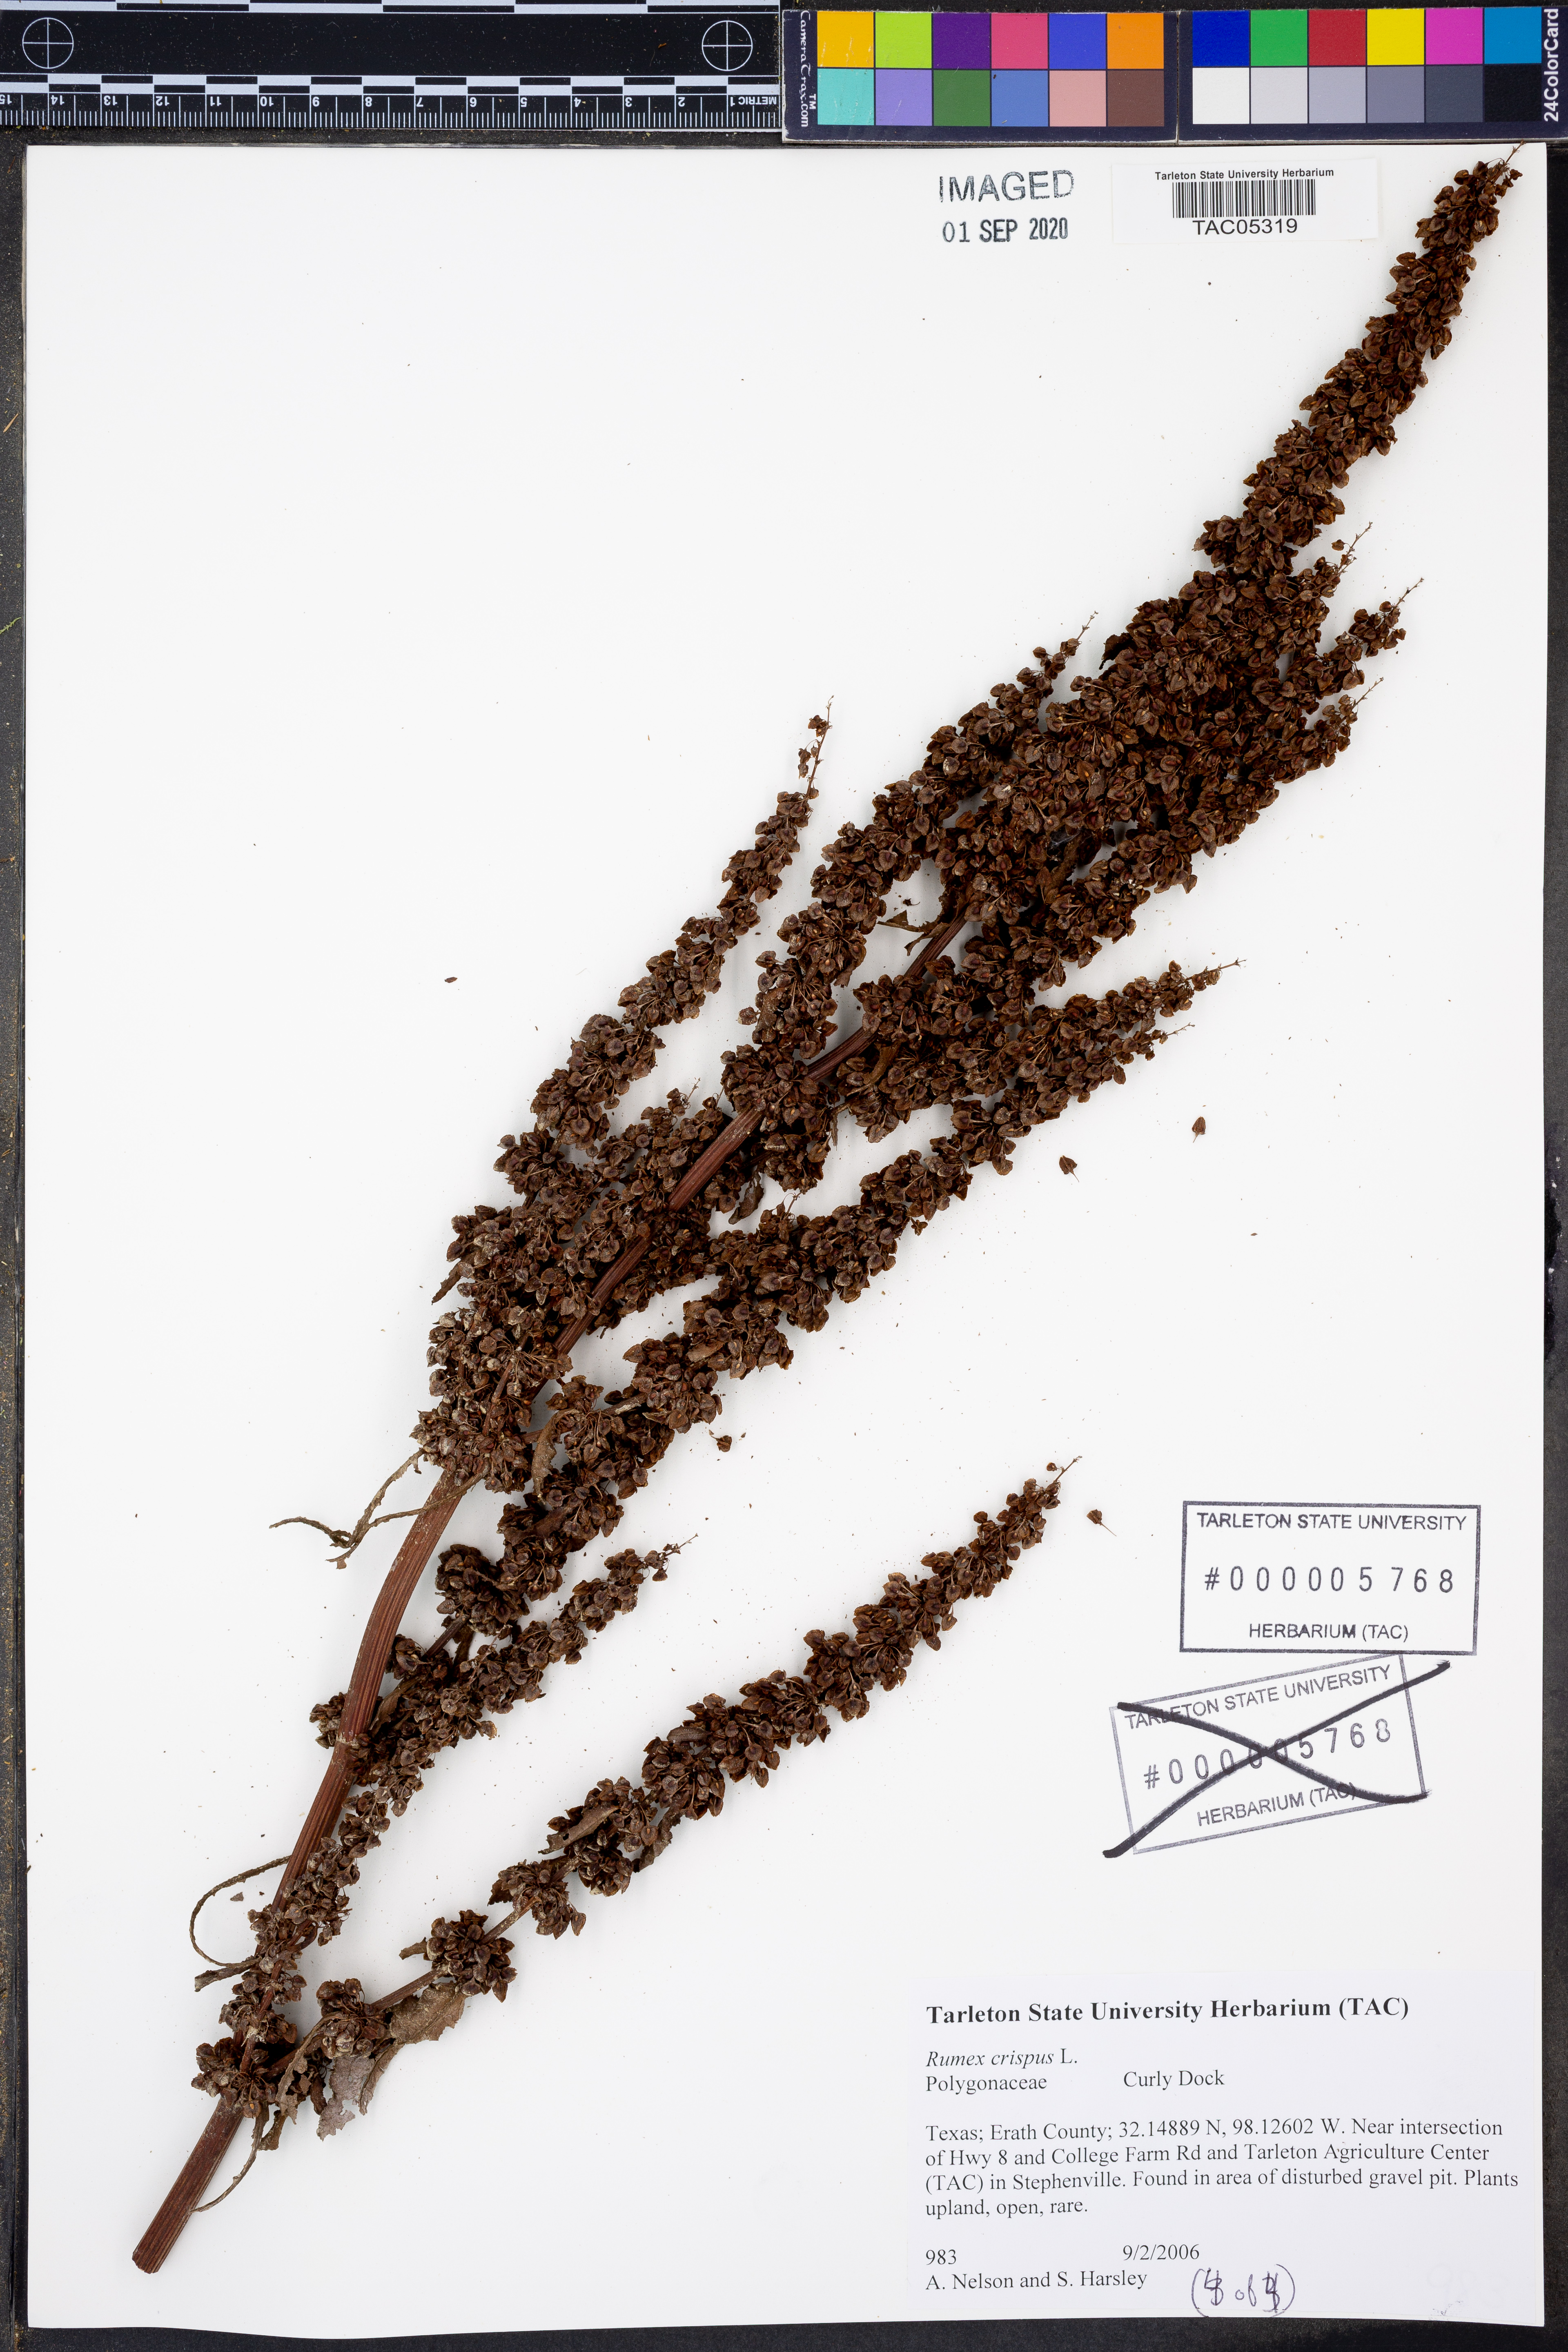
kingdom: Plantae
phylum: Tracheophyta
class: Magnoliopsida
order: Caryophyllales
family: Polygonaceae
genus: Rumex
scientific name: Rumex crispus
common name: Curled dock
